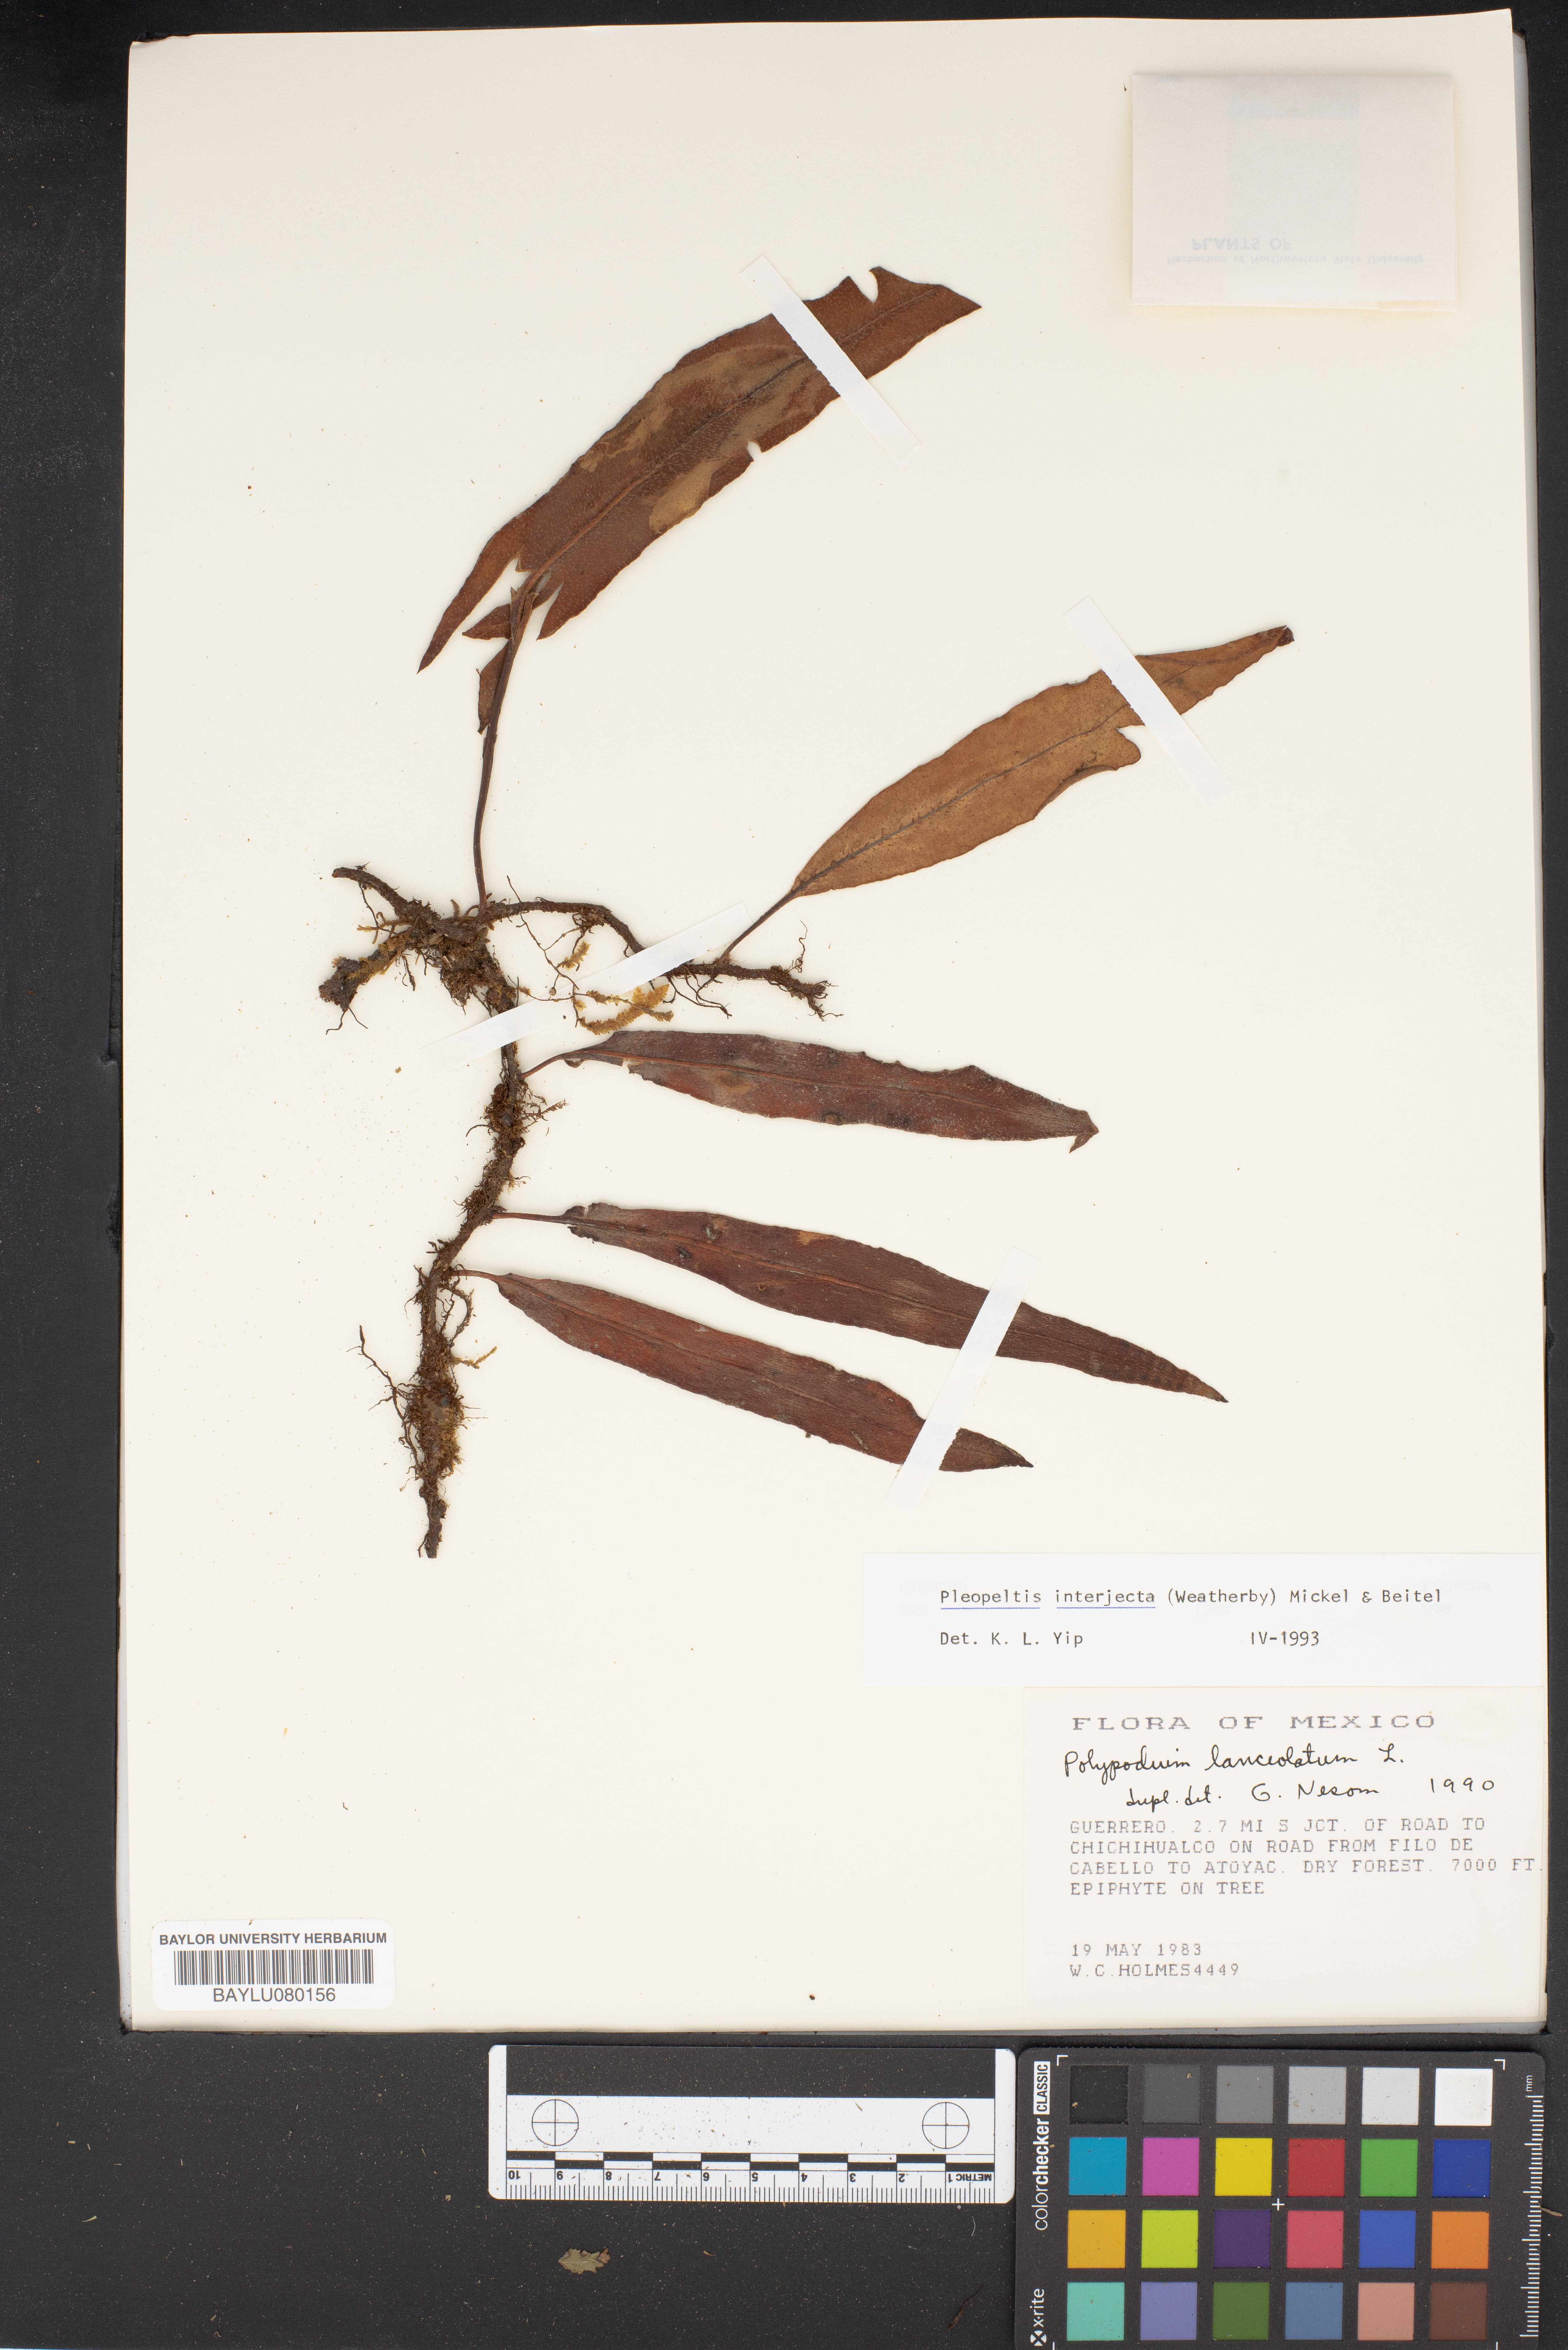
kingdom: Plantae
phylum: Tracheophyta
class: Polypodiopsida
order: Polypodiales
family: Polypodiaceae
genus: Pleopeltis
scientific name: Pleopeltis macrocarpa
